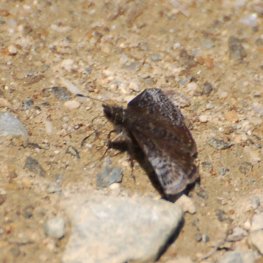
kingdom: Animalia
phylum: Arthropoda
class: Insecta
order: Lepidoptera
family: Hesperiidae
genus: Erynnis
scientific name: Erynnis icelus
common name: Dreamy Duskywing
